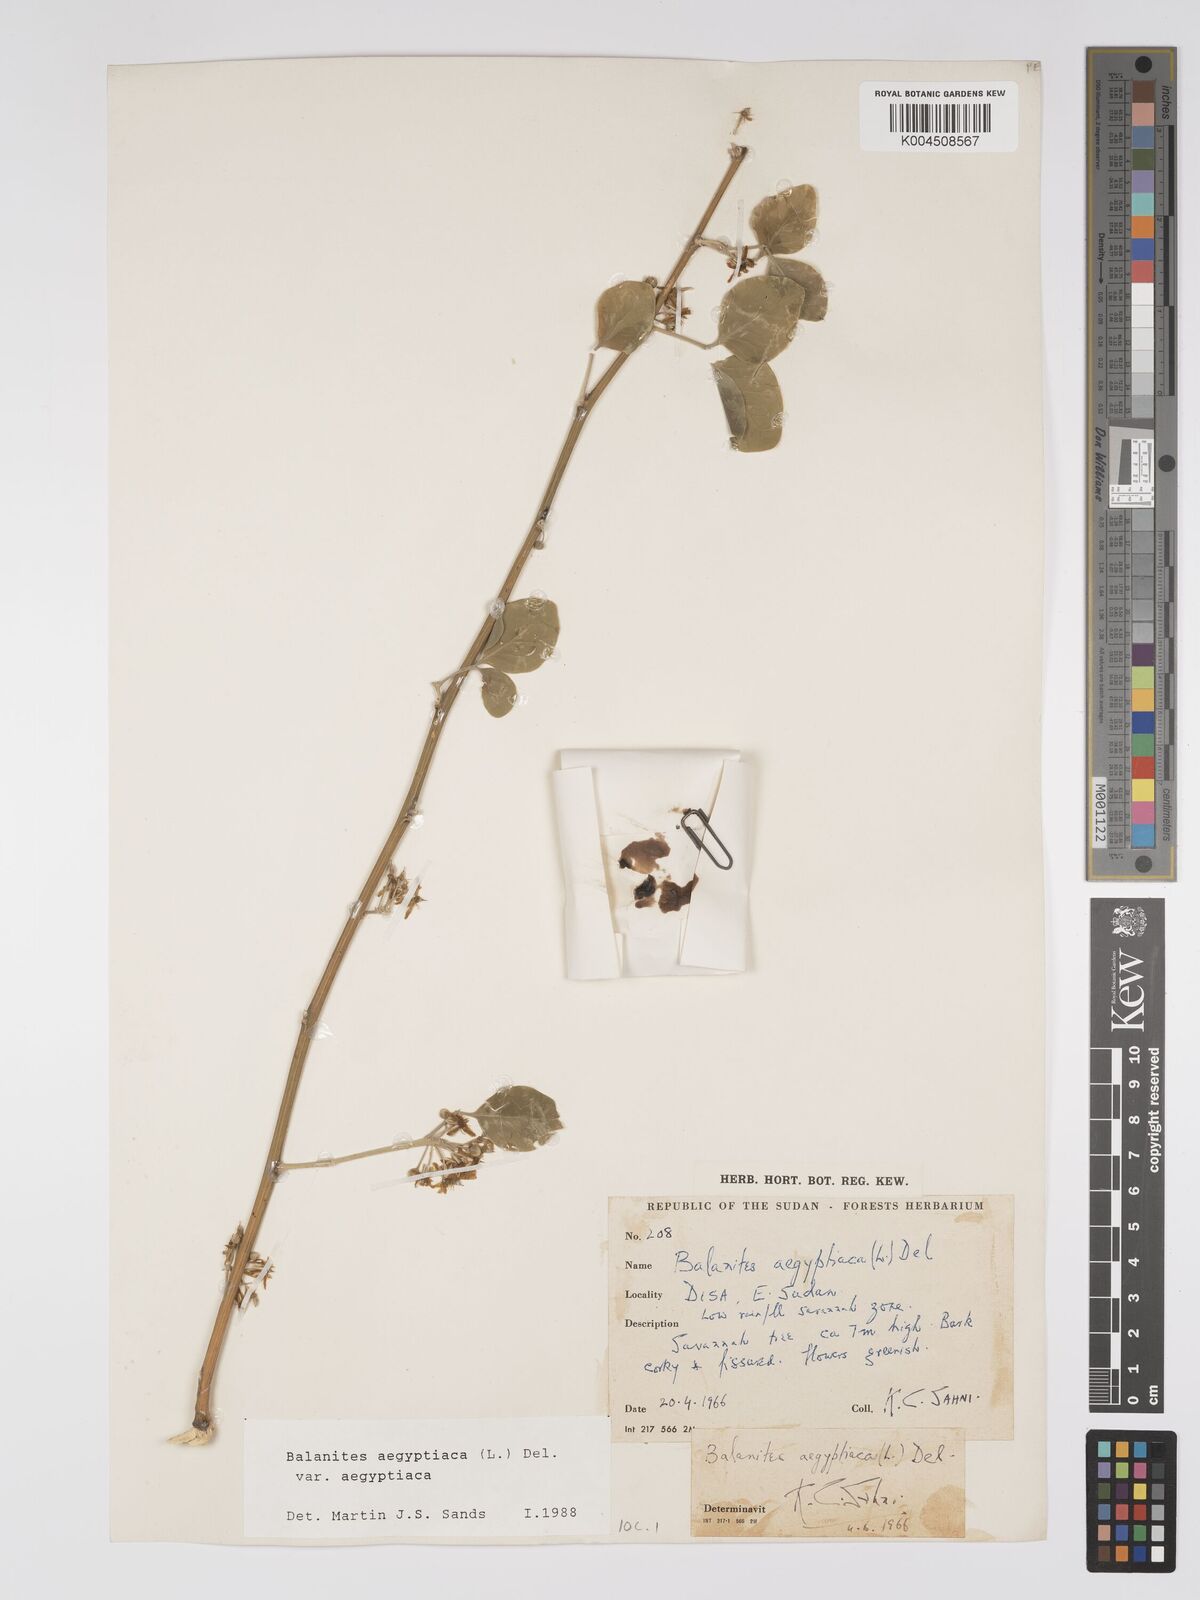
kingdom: Plantae
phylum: Tracheophyta
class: Magnoliopsida
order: Zygophyllales
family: Zygophyllaceae
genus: Balanites
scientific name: Balanites aegyptiaca
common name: Balanites
